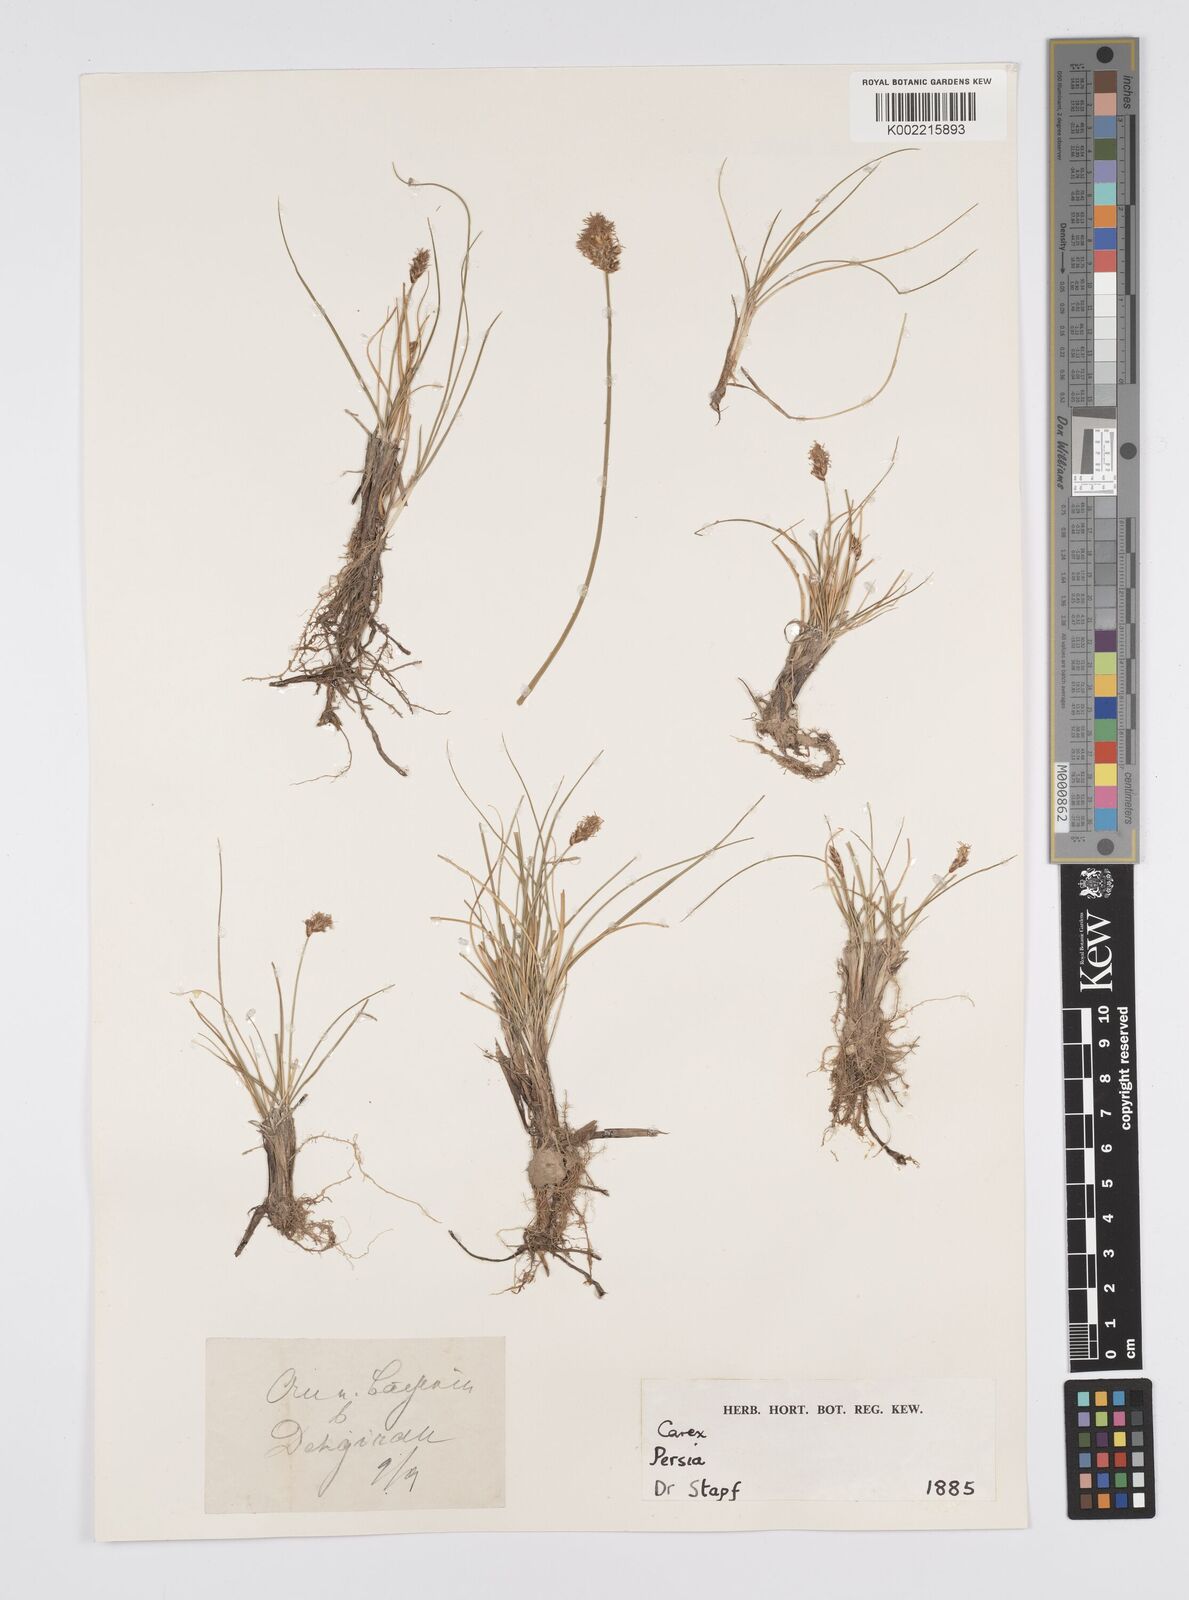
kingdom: Plantae
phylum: Tracheophyta
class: Liliopsida
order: Poales
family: Cyperaceae
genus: Carex
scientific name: Carex stenophylla
